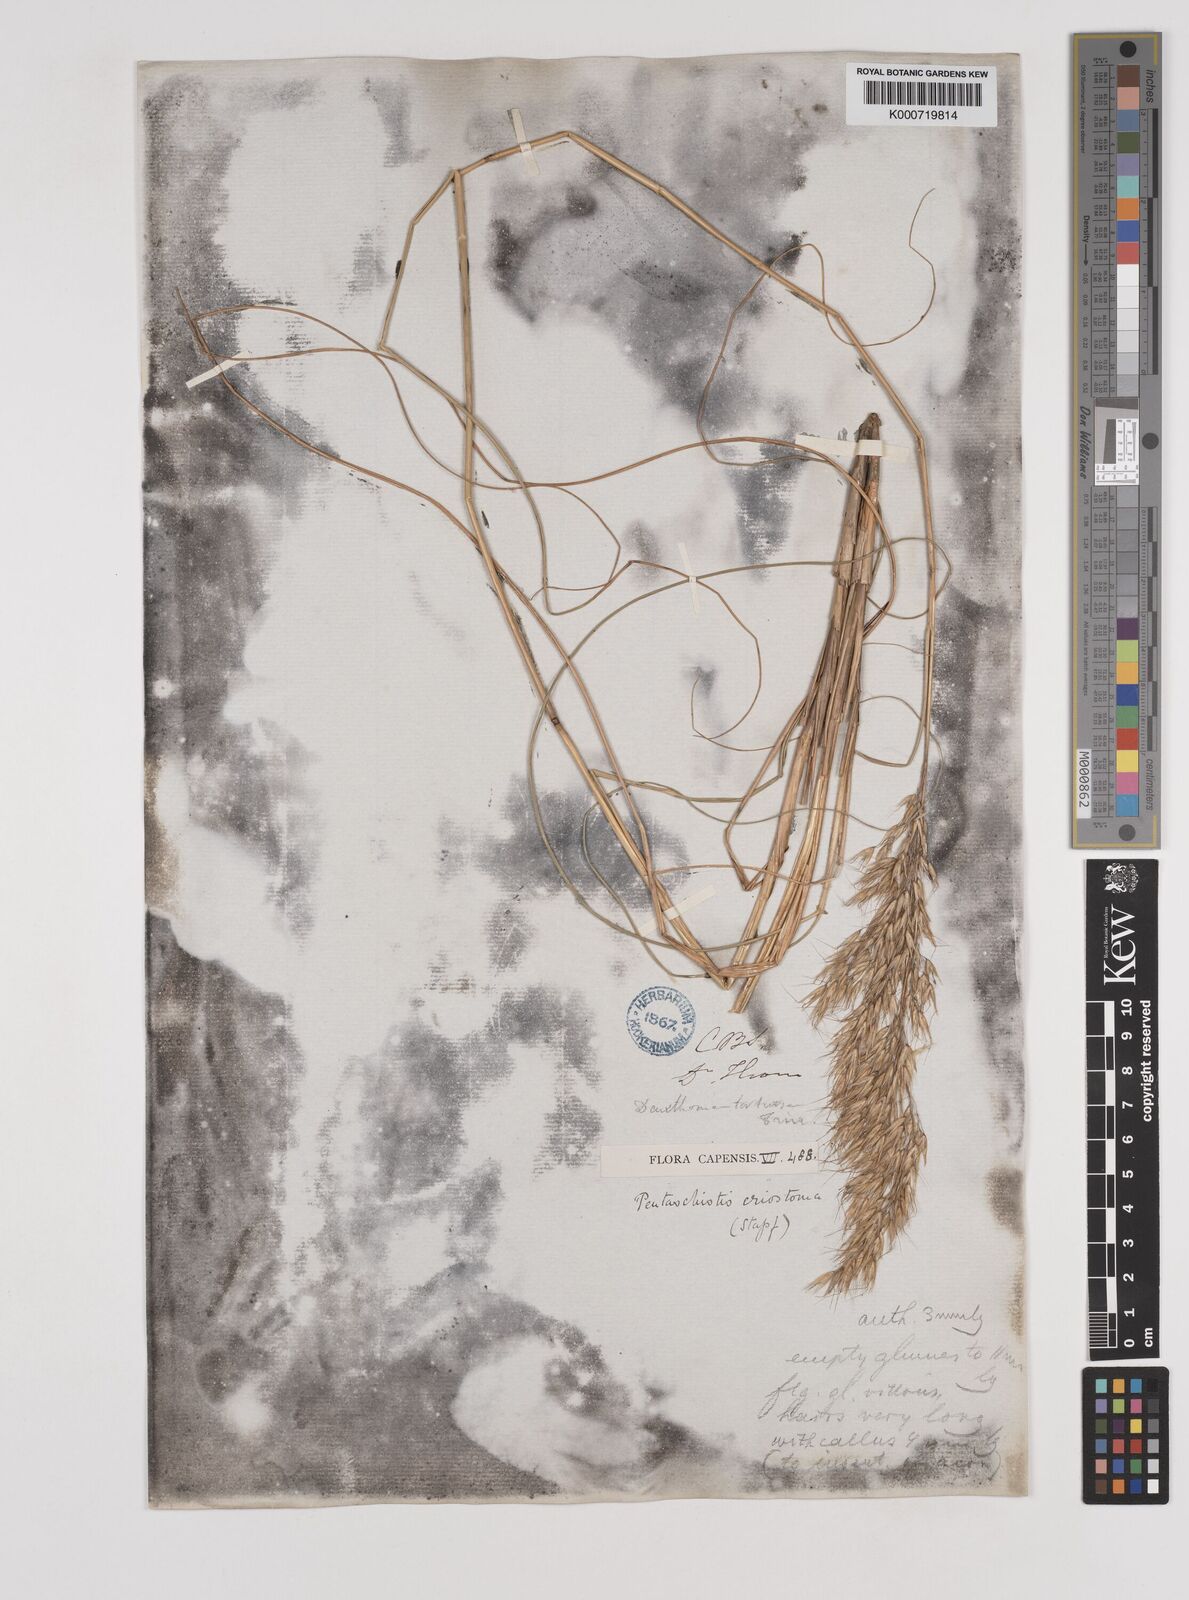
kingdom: Plantae
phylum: Tracheophyta
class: Liliopsida
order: Poales
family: Poaceae
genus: Pentameris
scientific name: Pentameris eriostoma
